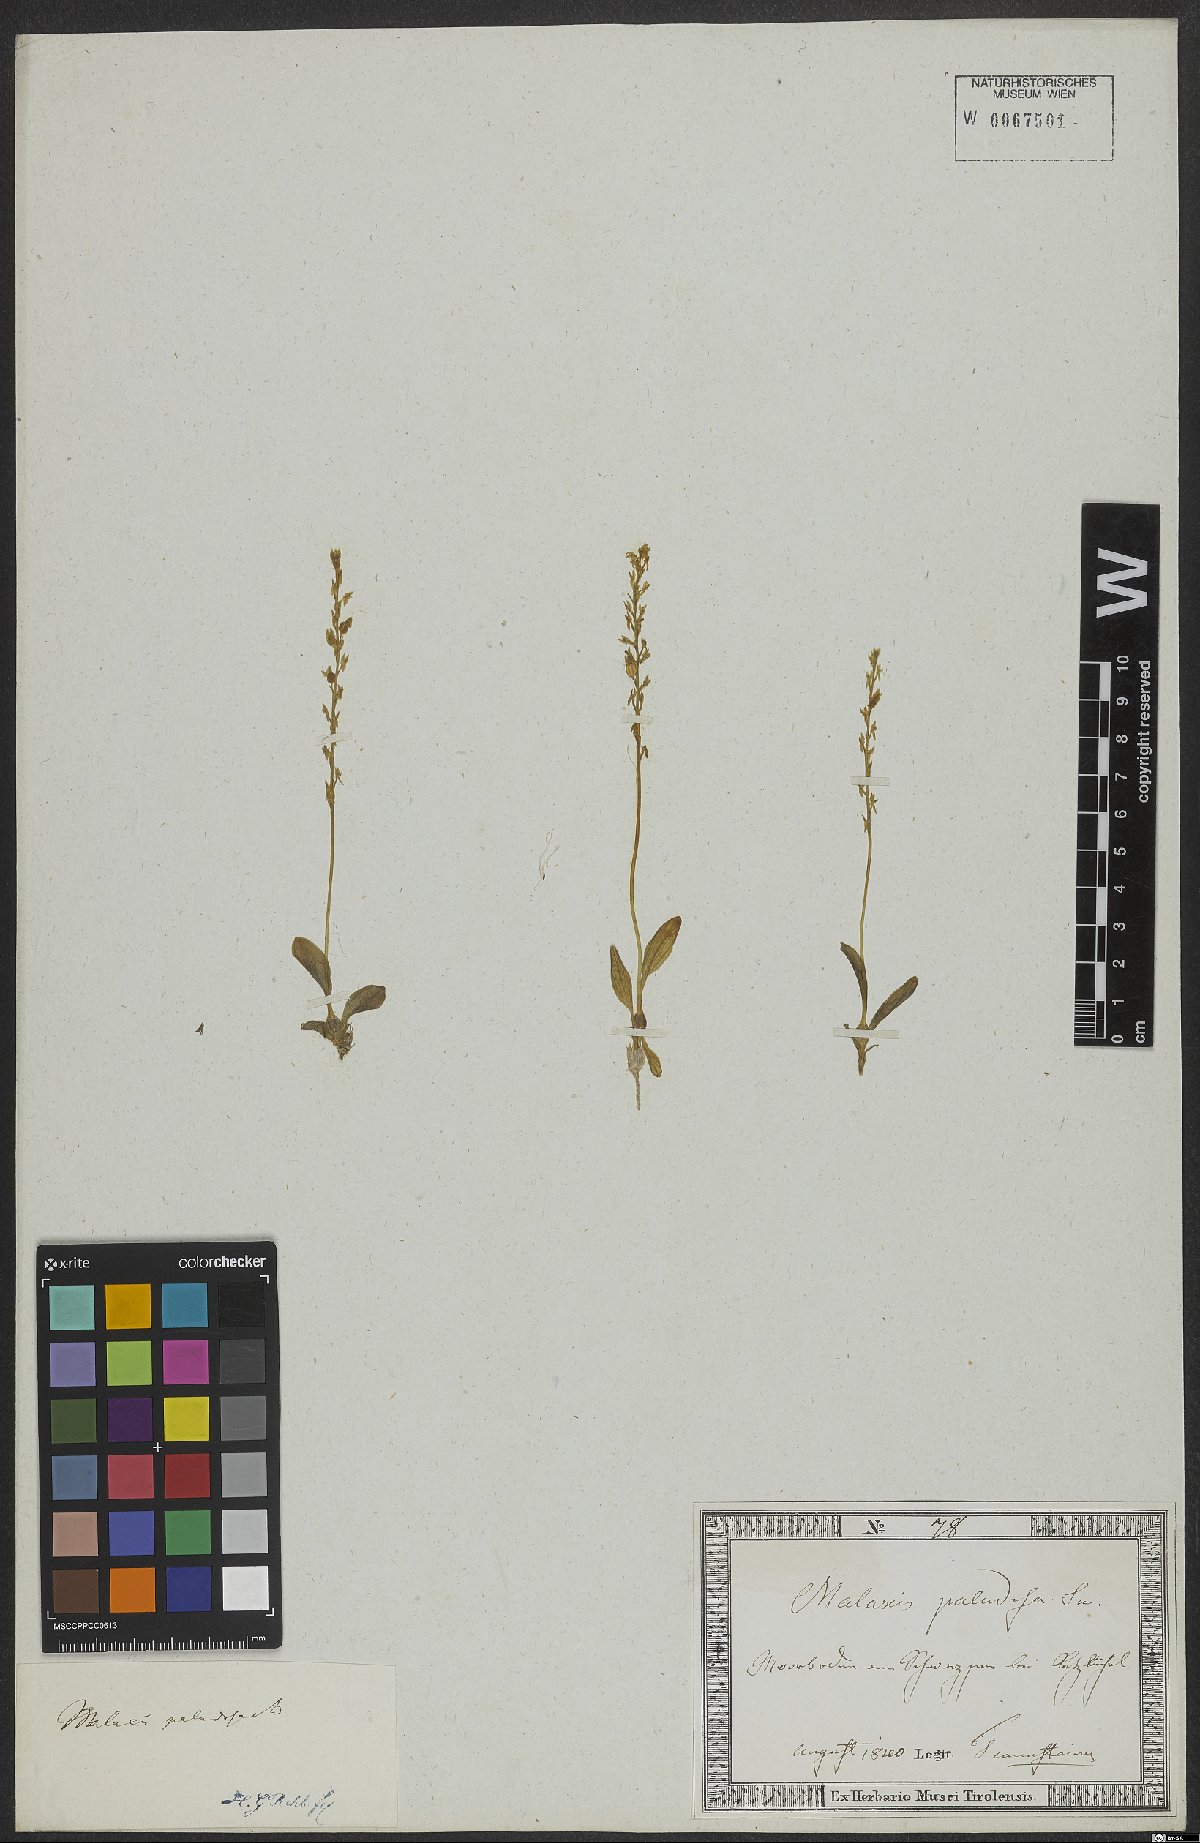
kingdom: Plantae
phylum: Tracheophyta
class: Liliopsida
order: Asparagales
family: Orchidaceae
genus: Hammarbya
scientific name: Hammarbya paludosa
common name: Bog orchid
